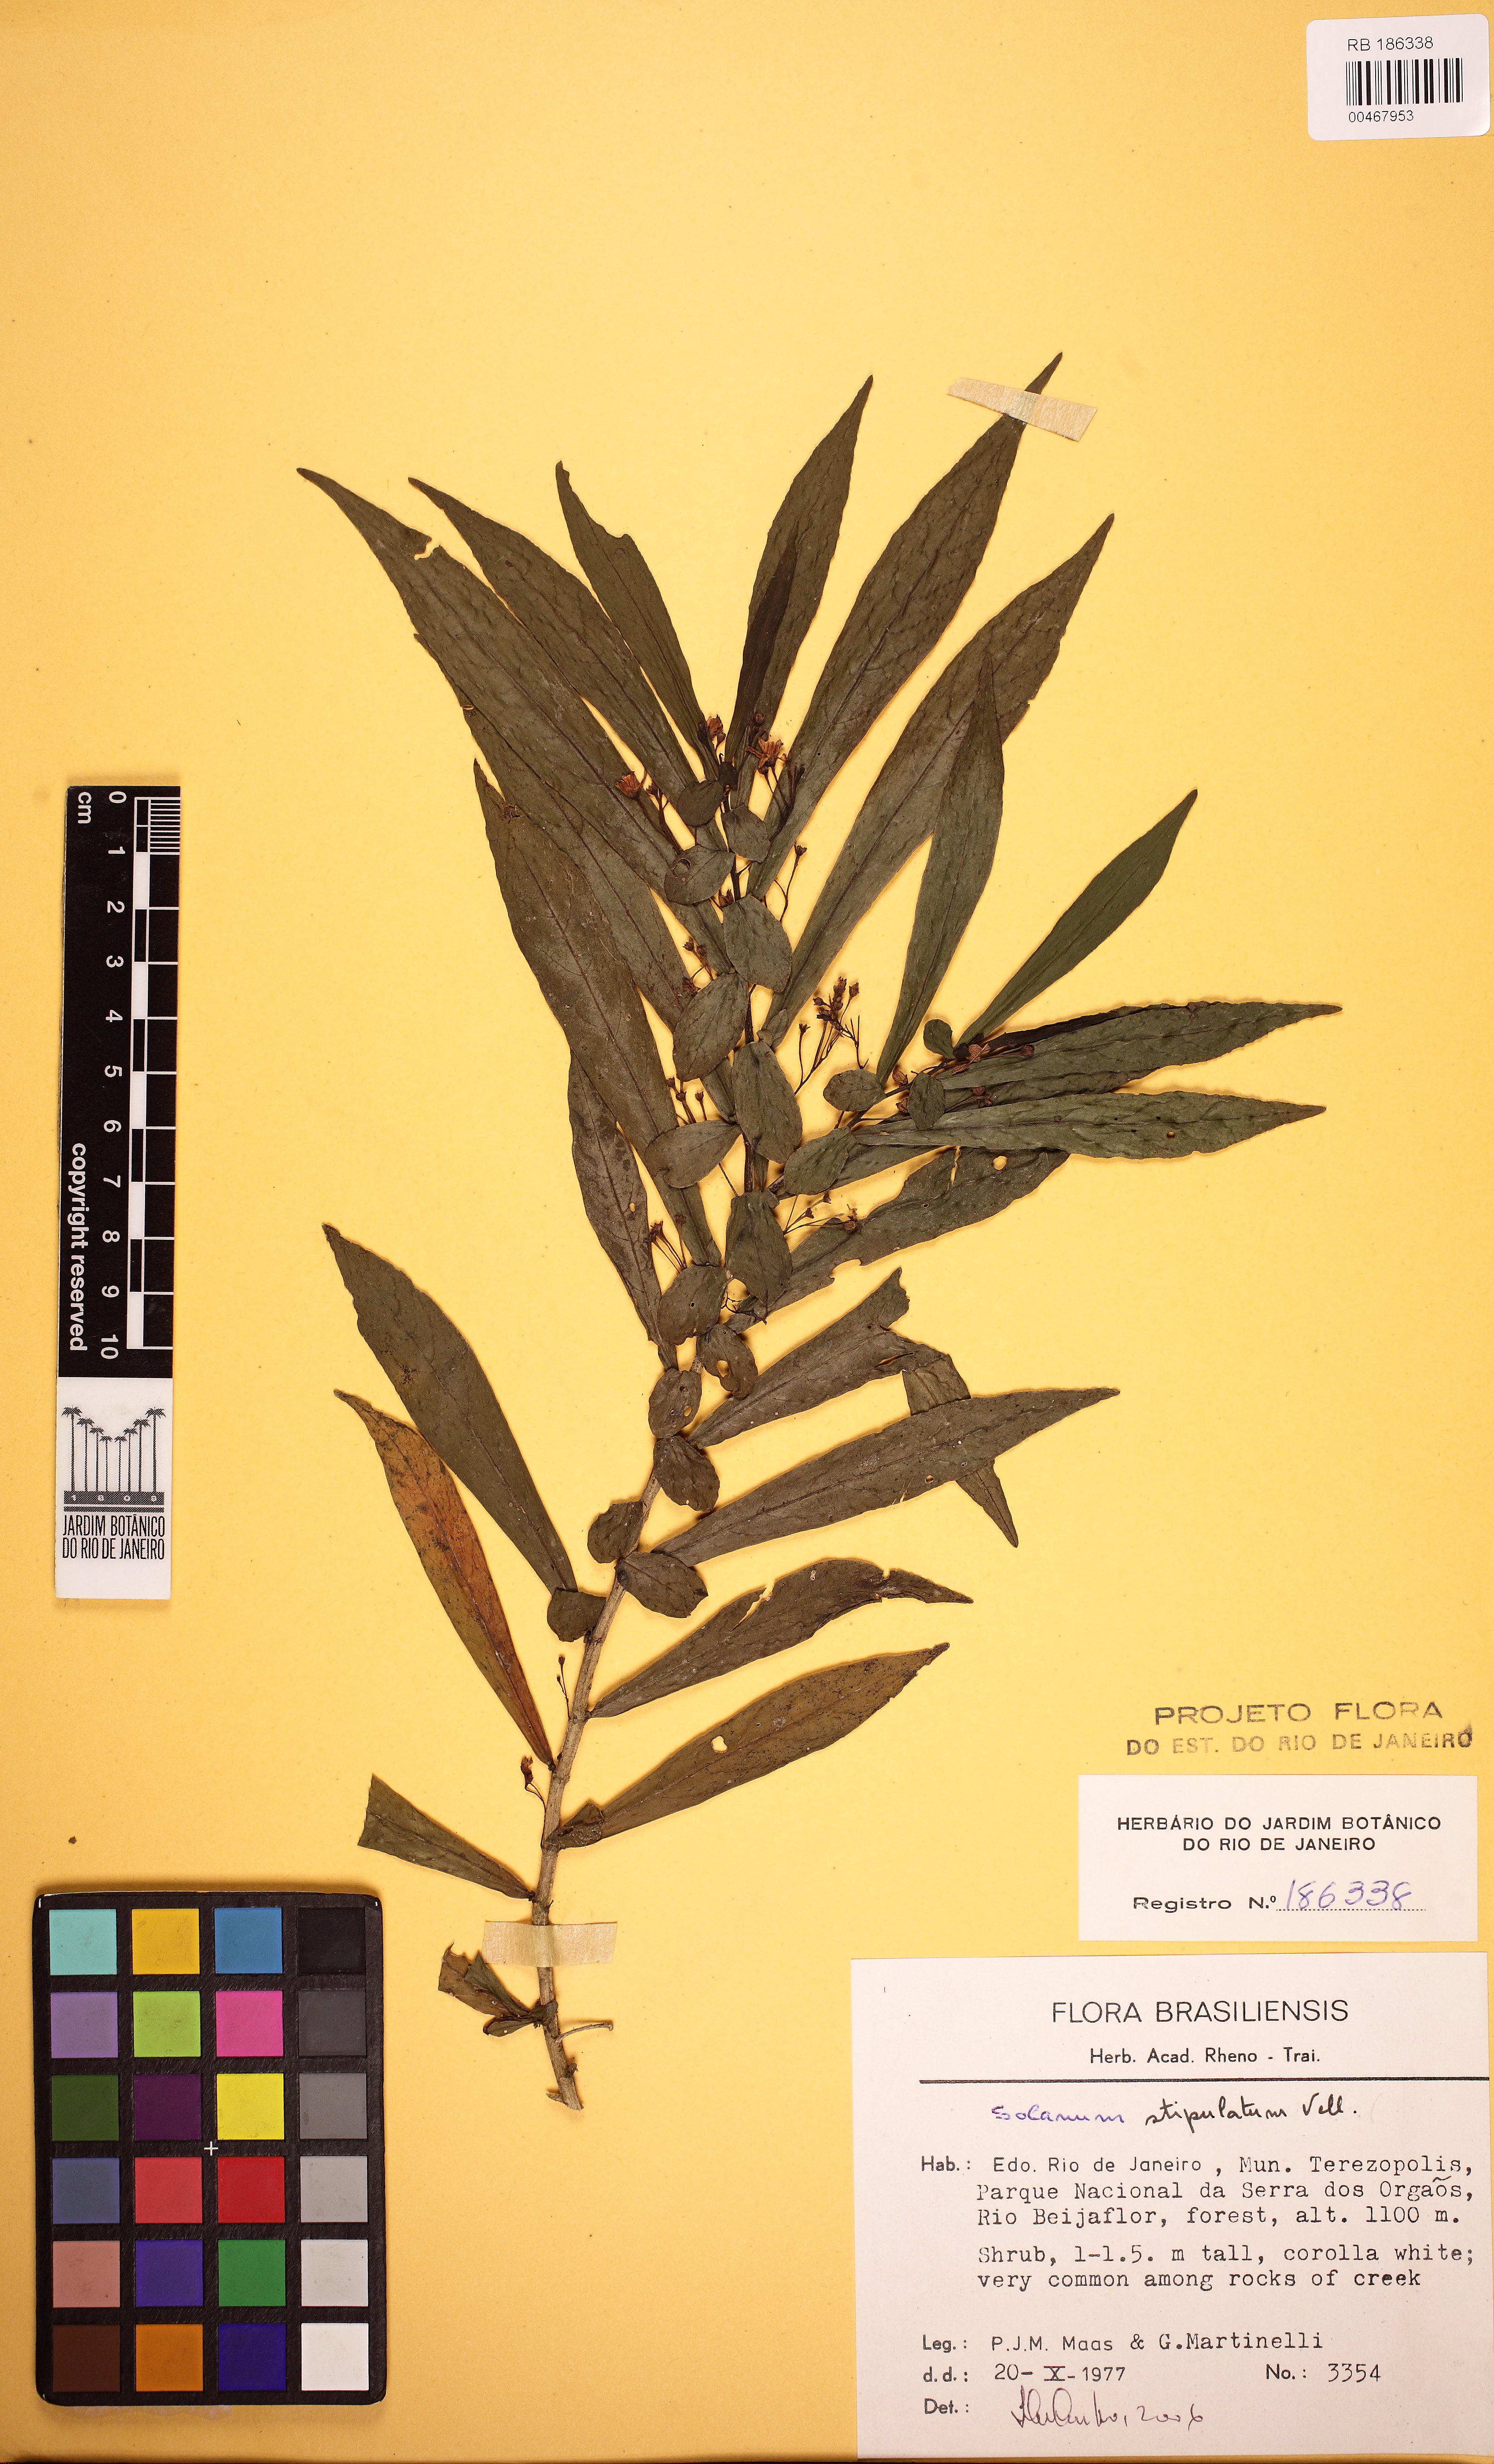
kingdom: Plantae
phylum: Tracheophyta
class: Magnoliopsida
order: Solanales
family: Solanaceae
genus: Solanum
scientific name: Solanum stipulatum
